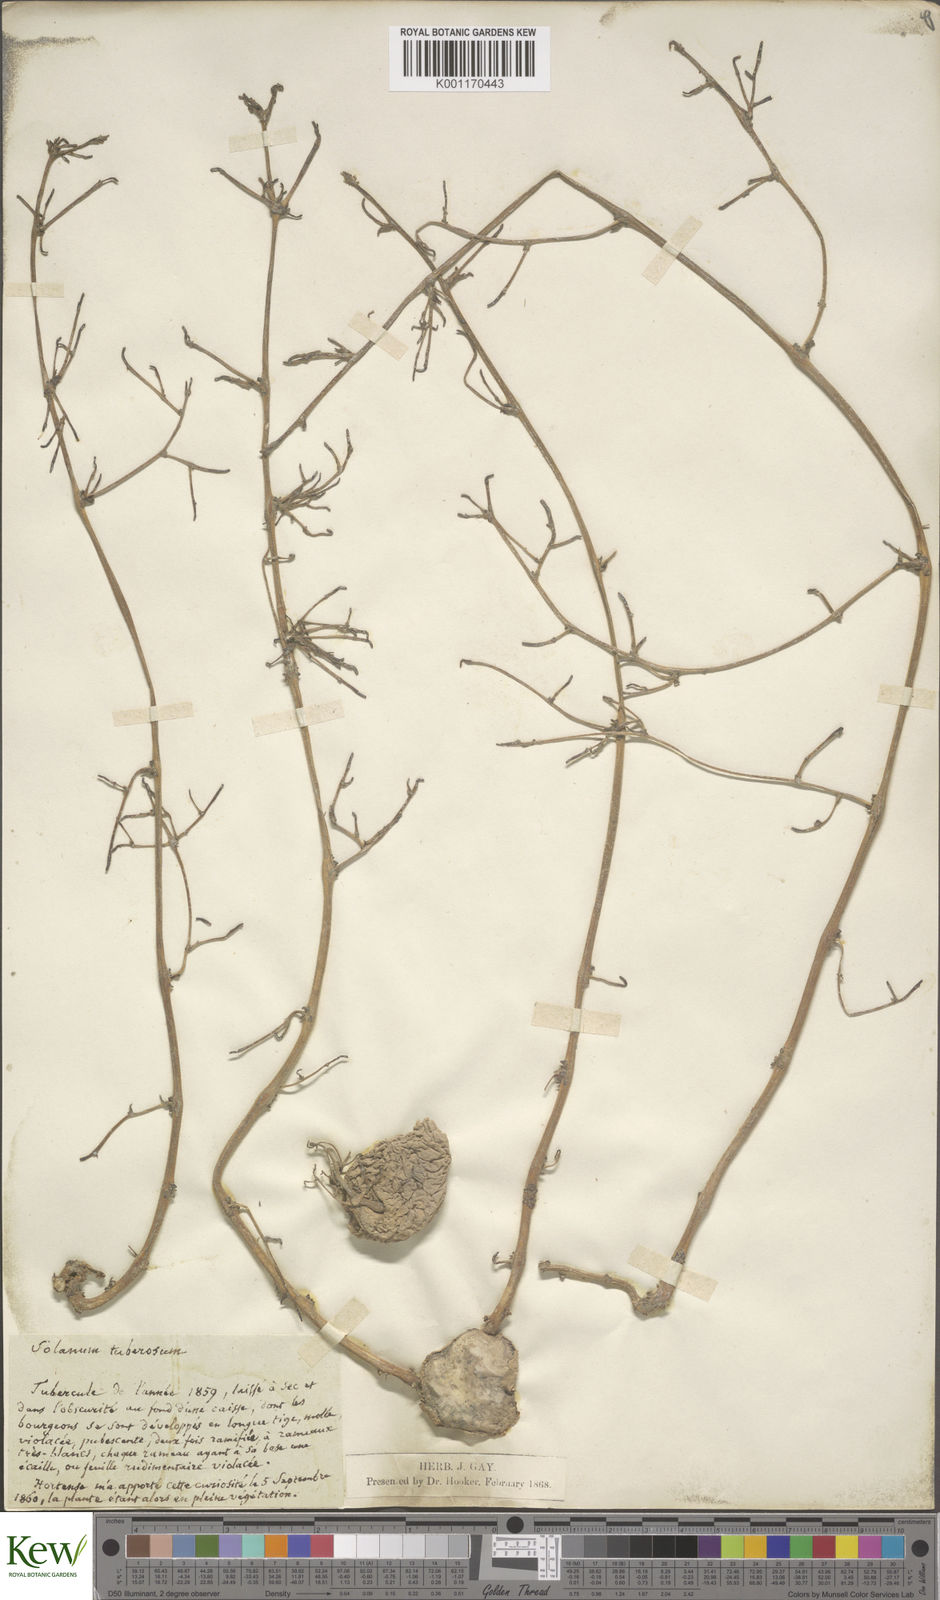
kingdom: Plantae
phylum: Tracheophyta
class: Magnoliopsida
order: Solanales
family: Solanaceae
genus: Solanum
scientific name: Solanum tuberosum
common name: Potato
